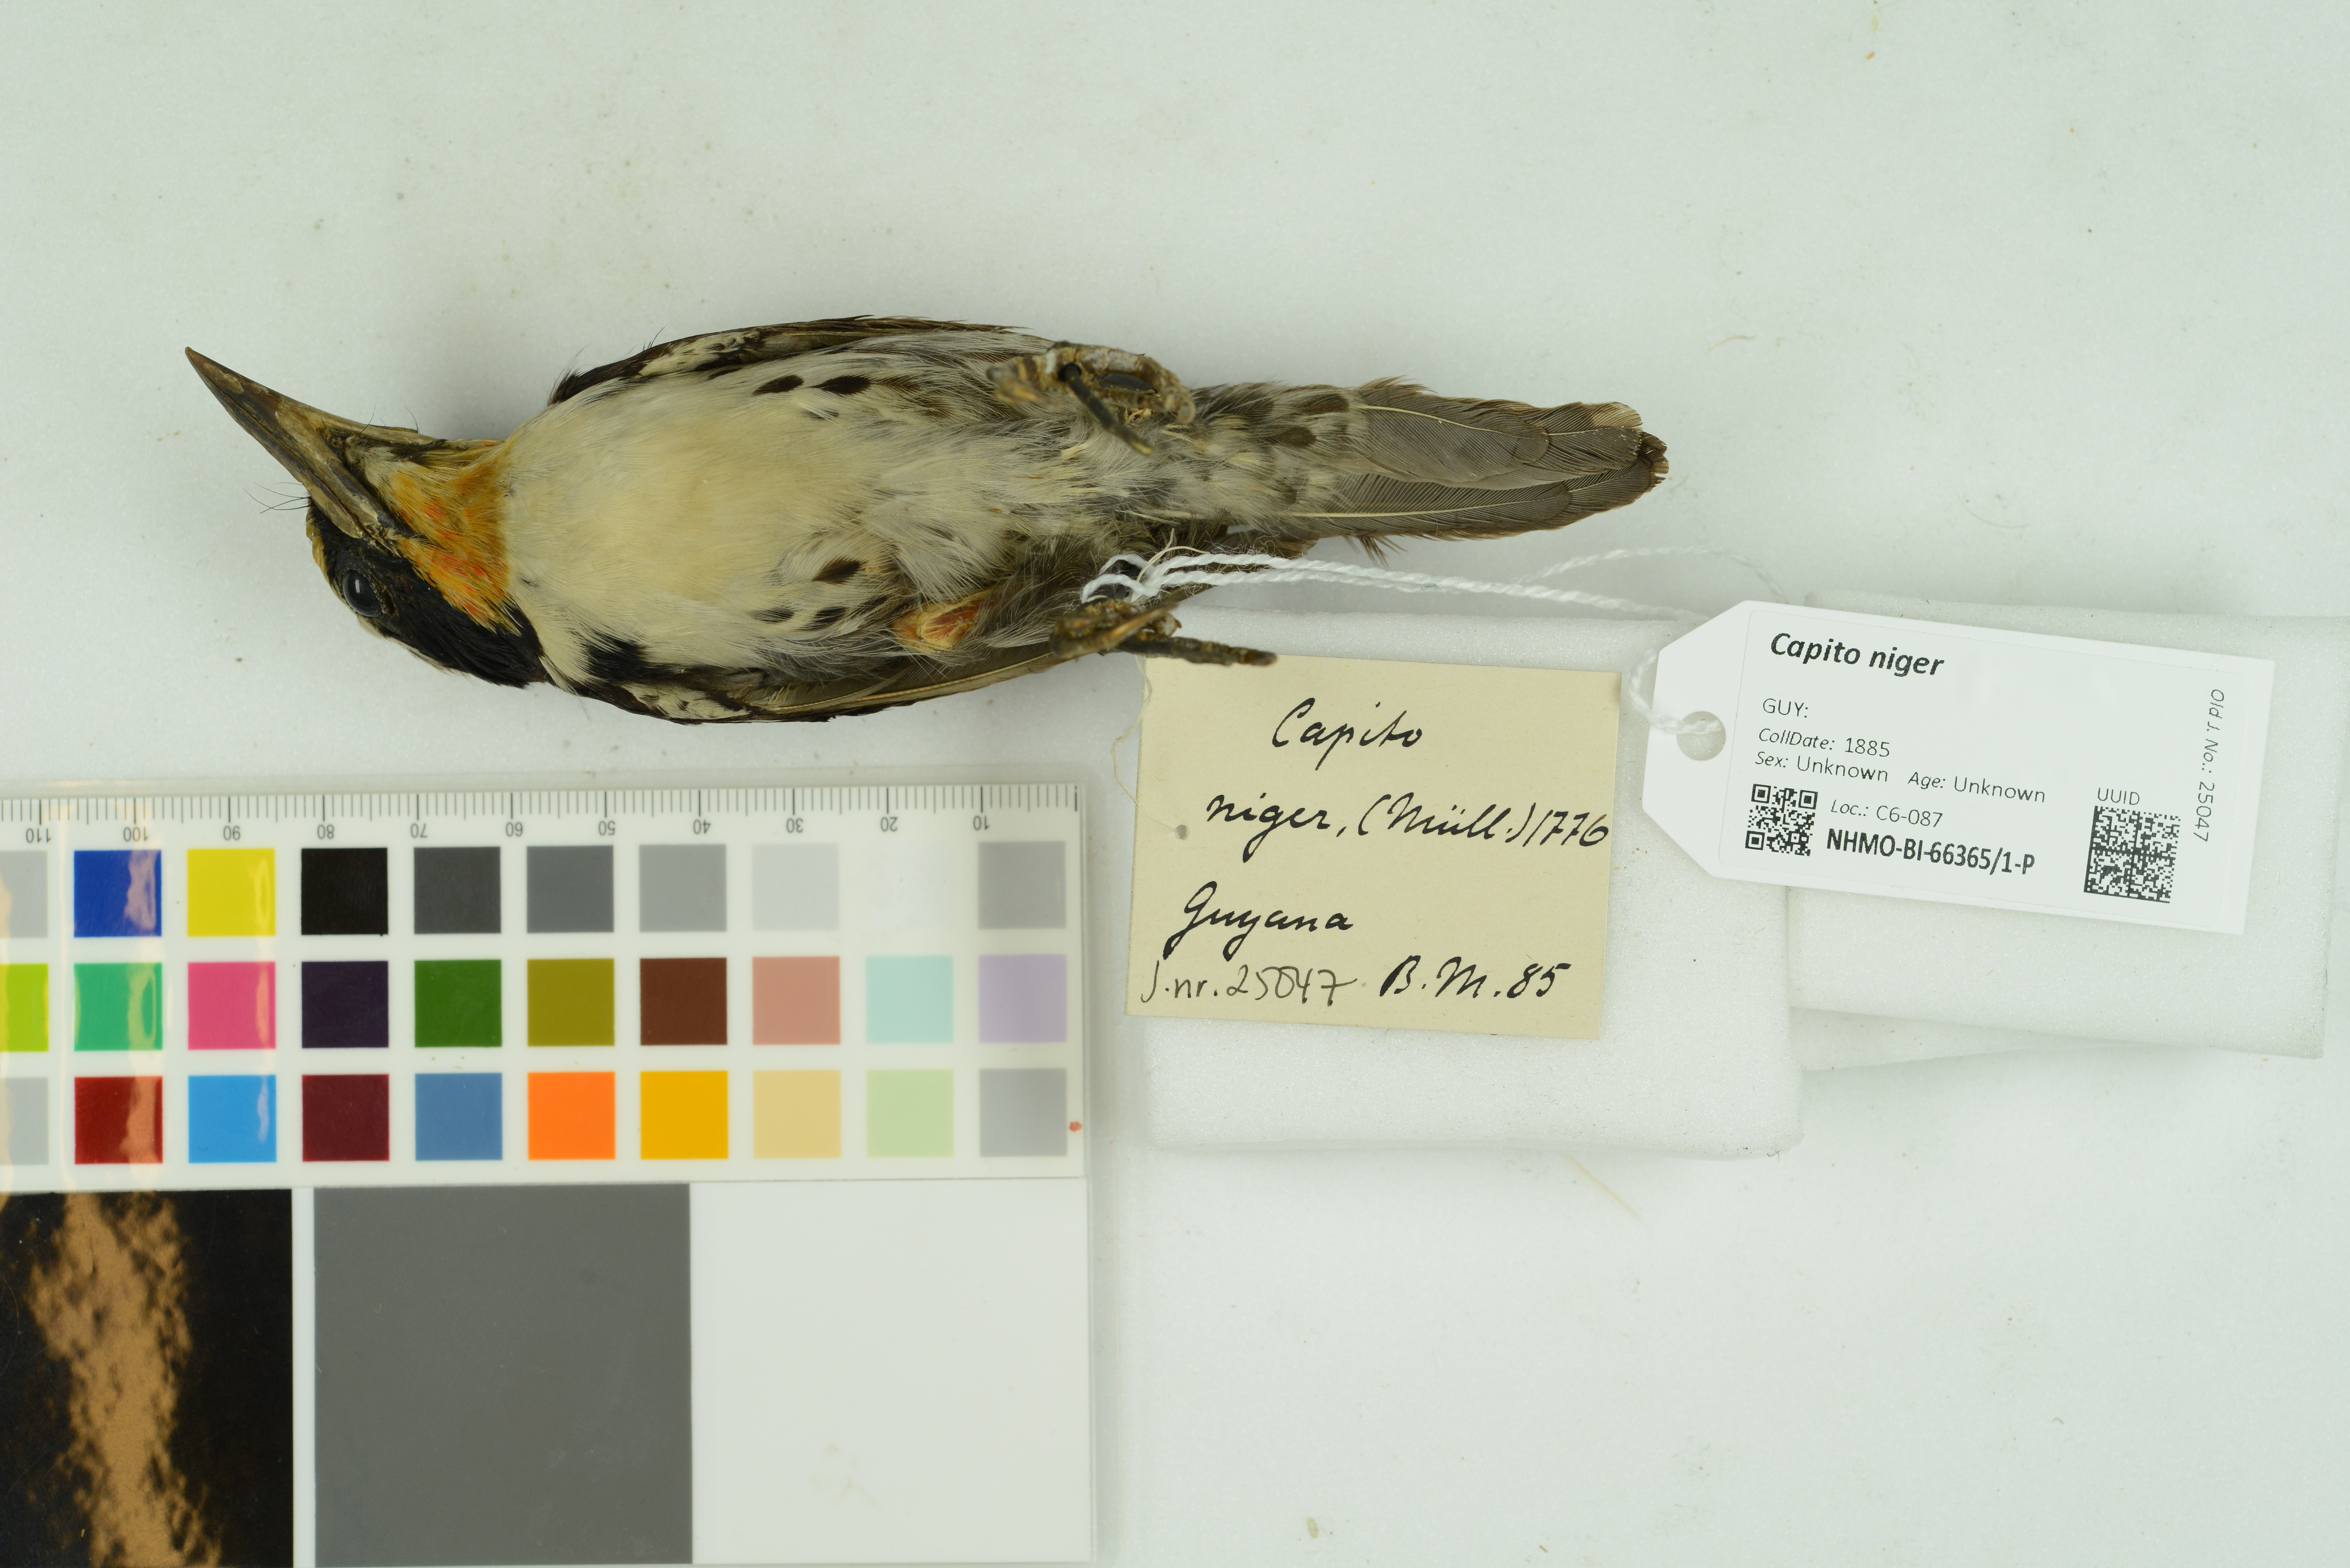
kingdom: Animalia
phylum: Chordata
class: Aves
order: Piciformes
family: Capitonidae
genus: Capito
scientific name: Capito niger
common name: Black-spotted barbet
